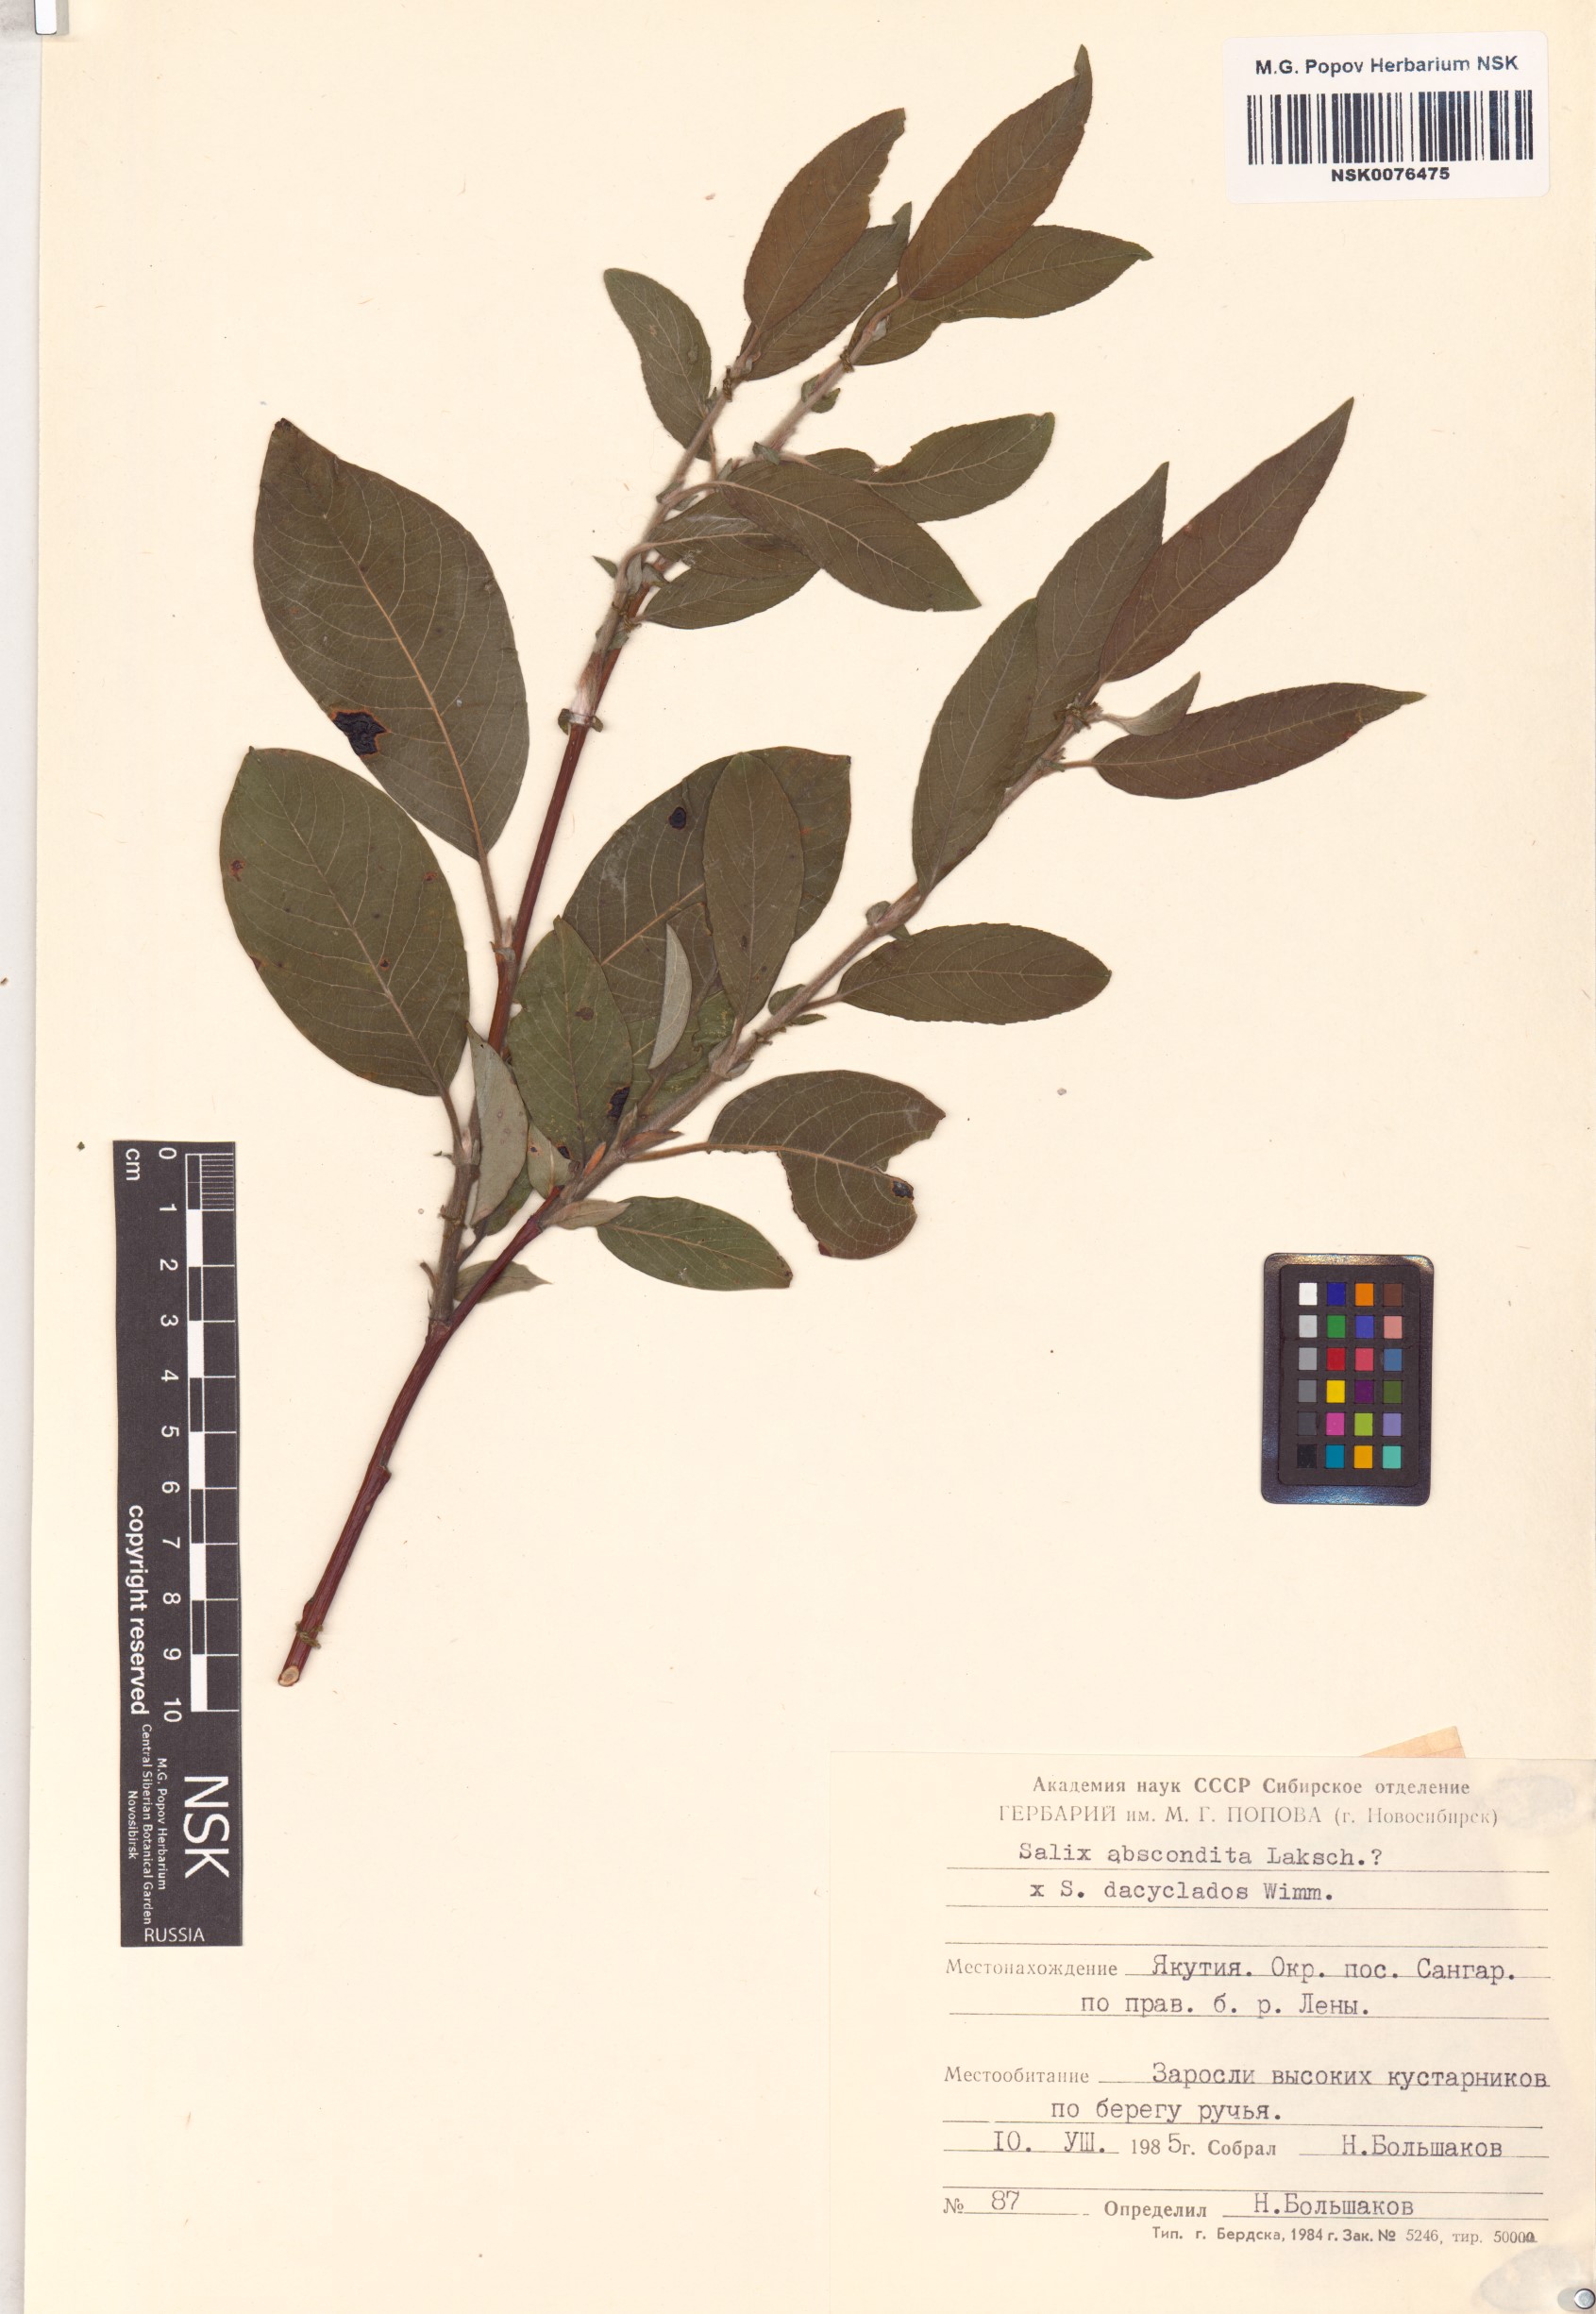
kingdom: Plantae
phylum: Tracheophyta
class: Magnoliopsida
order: Malpighiales
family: Salicaceae
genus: Salix
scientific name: Salix
